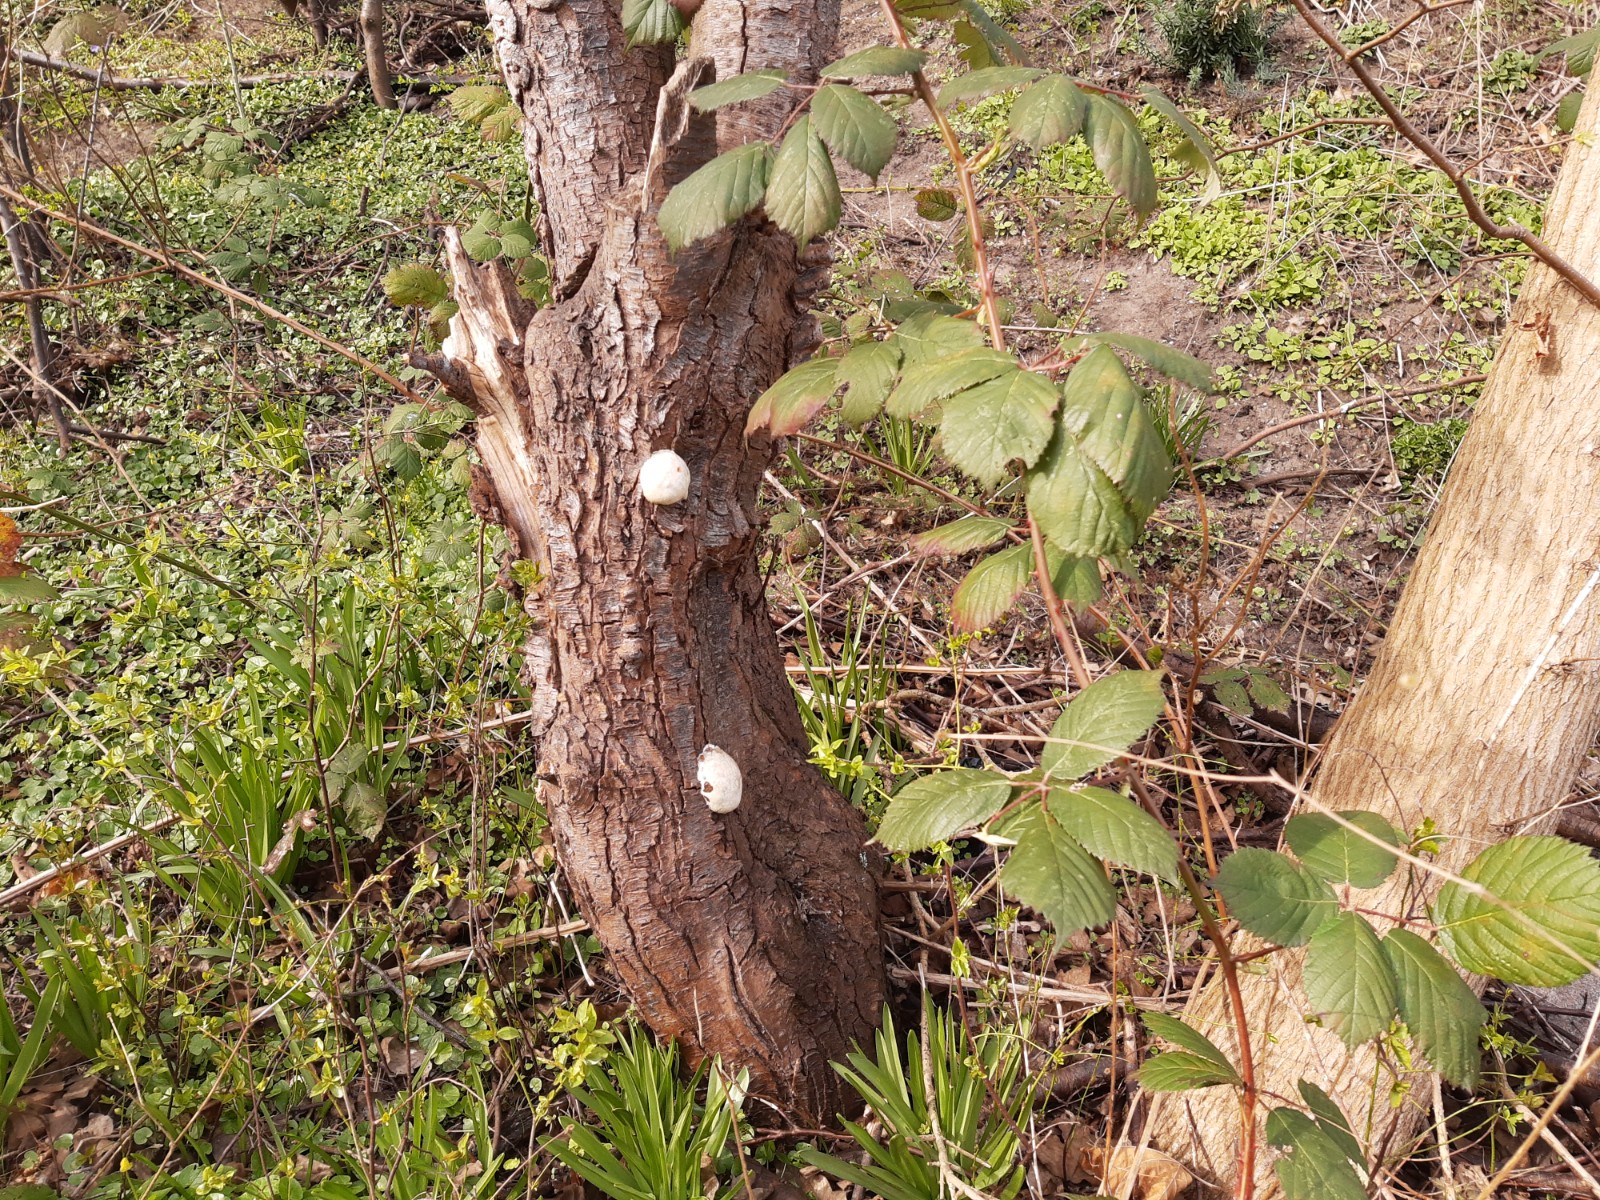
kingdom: Protozoa
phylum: Mycetozoa
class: Myxomycetes
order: Cribrariales
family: Tubiferaceae
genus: Reticularia
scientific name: Reticularia lycoperdon
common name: skinnende støvpude
